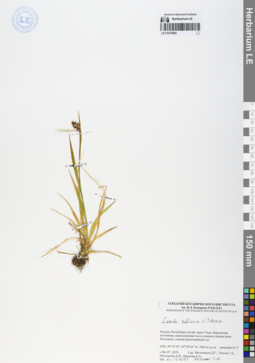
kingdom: Plantae
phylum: Tracheophyta
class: Liliopsida
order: Poales
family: Juncaceae
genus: Luzula
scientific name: Luzula multiflora
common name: Heath wood-rush
